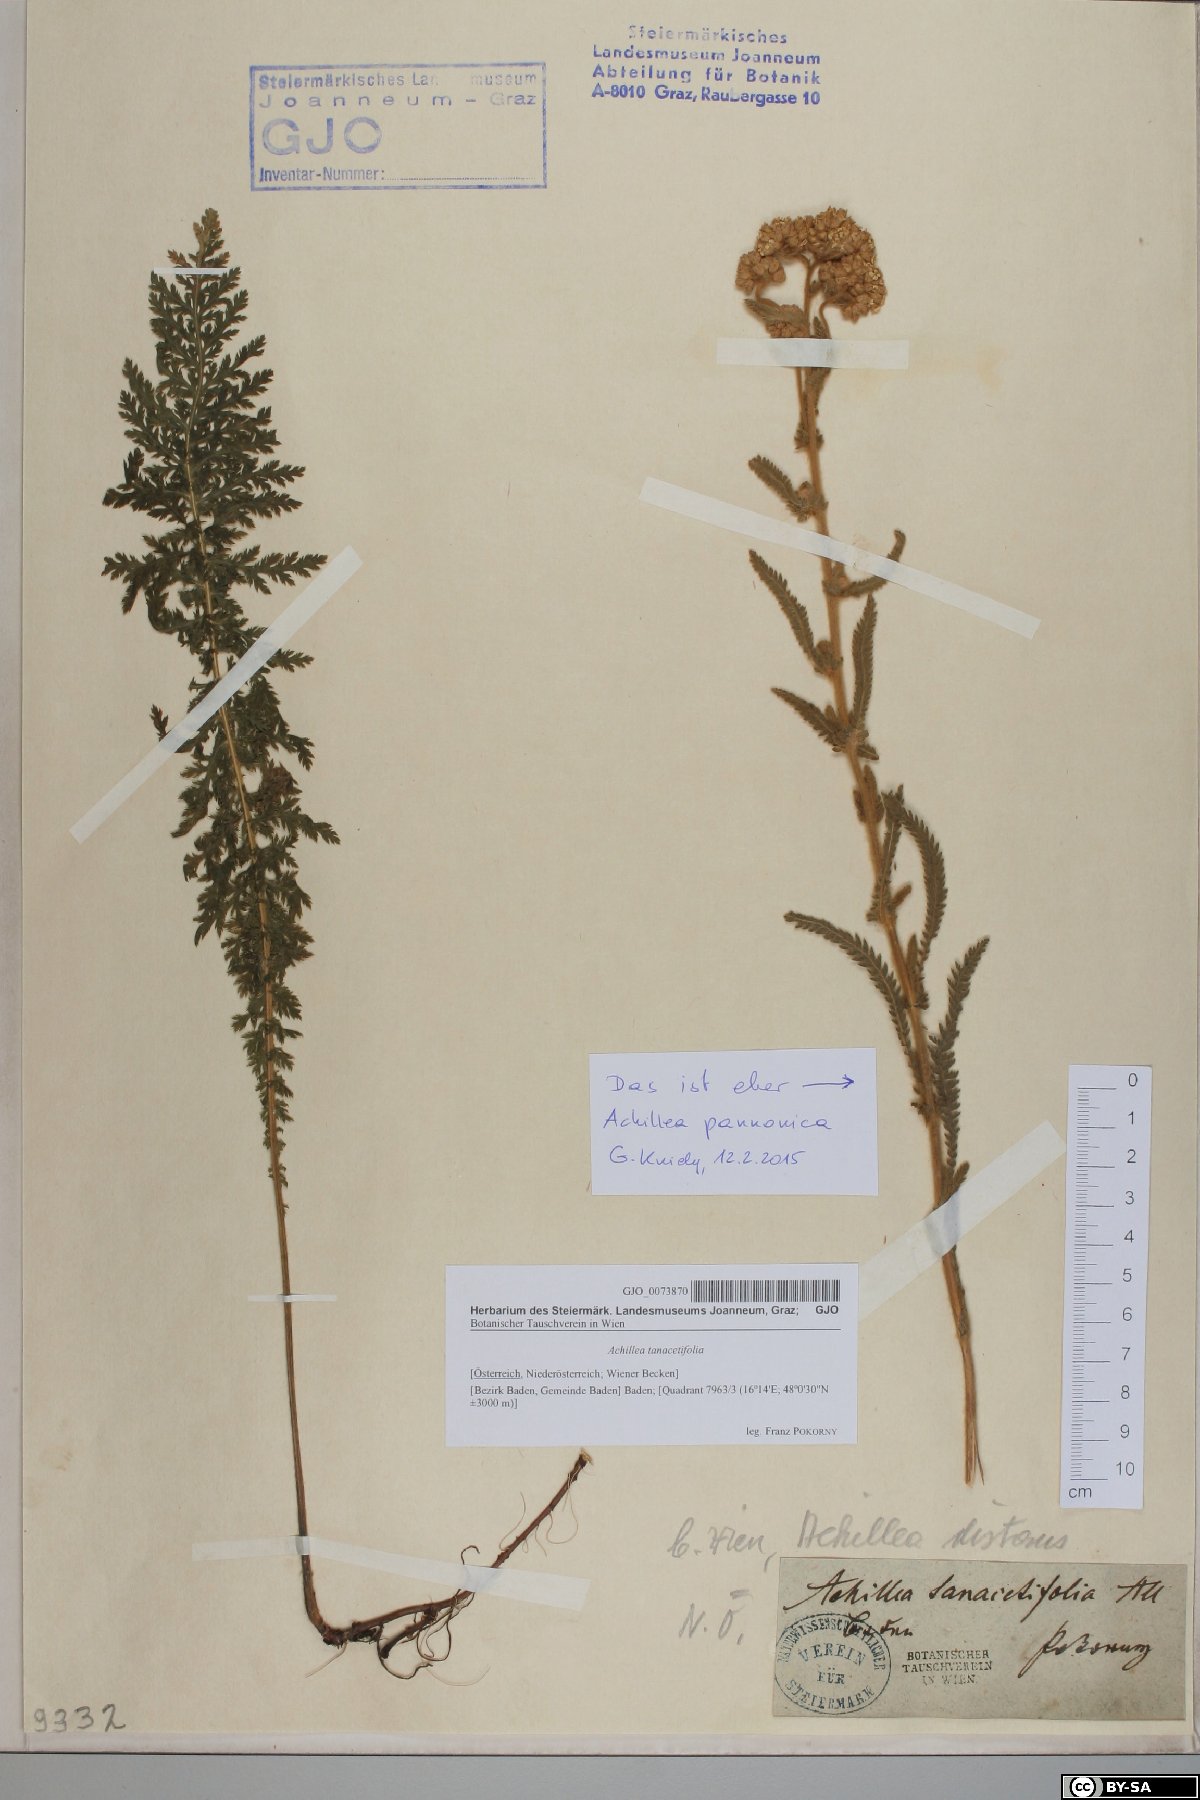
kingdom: Plantae
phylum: Tracheophyta
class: Magnoliopsida
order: Asterales
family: Asteraceae
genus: Achillea
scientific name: Achillea distans
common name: Tall yarrow
